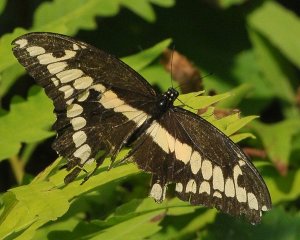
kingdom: Animalia
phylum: Arthropoda
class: Insecta
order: Lepidoptera
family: Papilionidae
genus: Papilio
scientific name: Papilio cresphontes
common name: Eastern Giant Swallowtail
